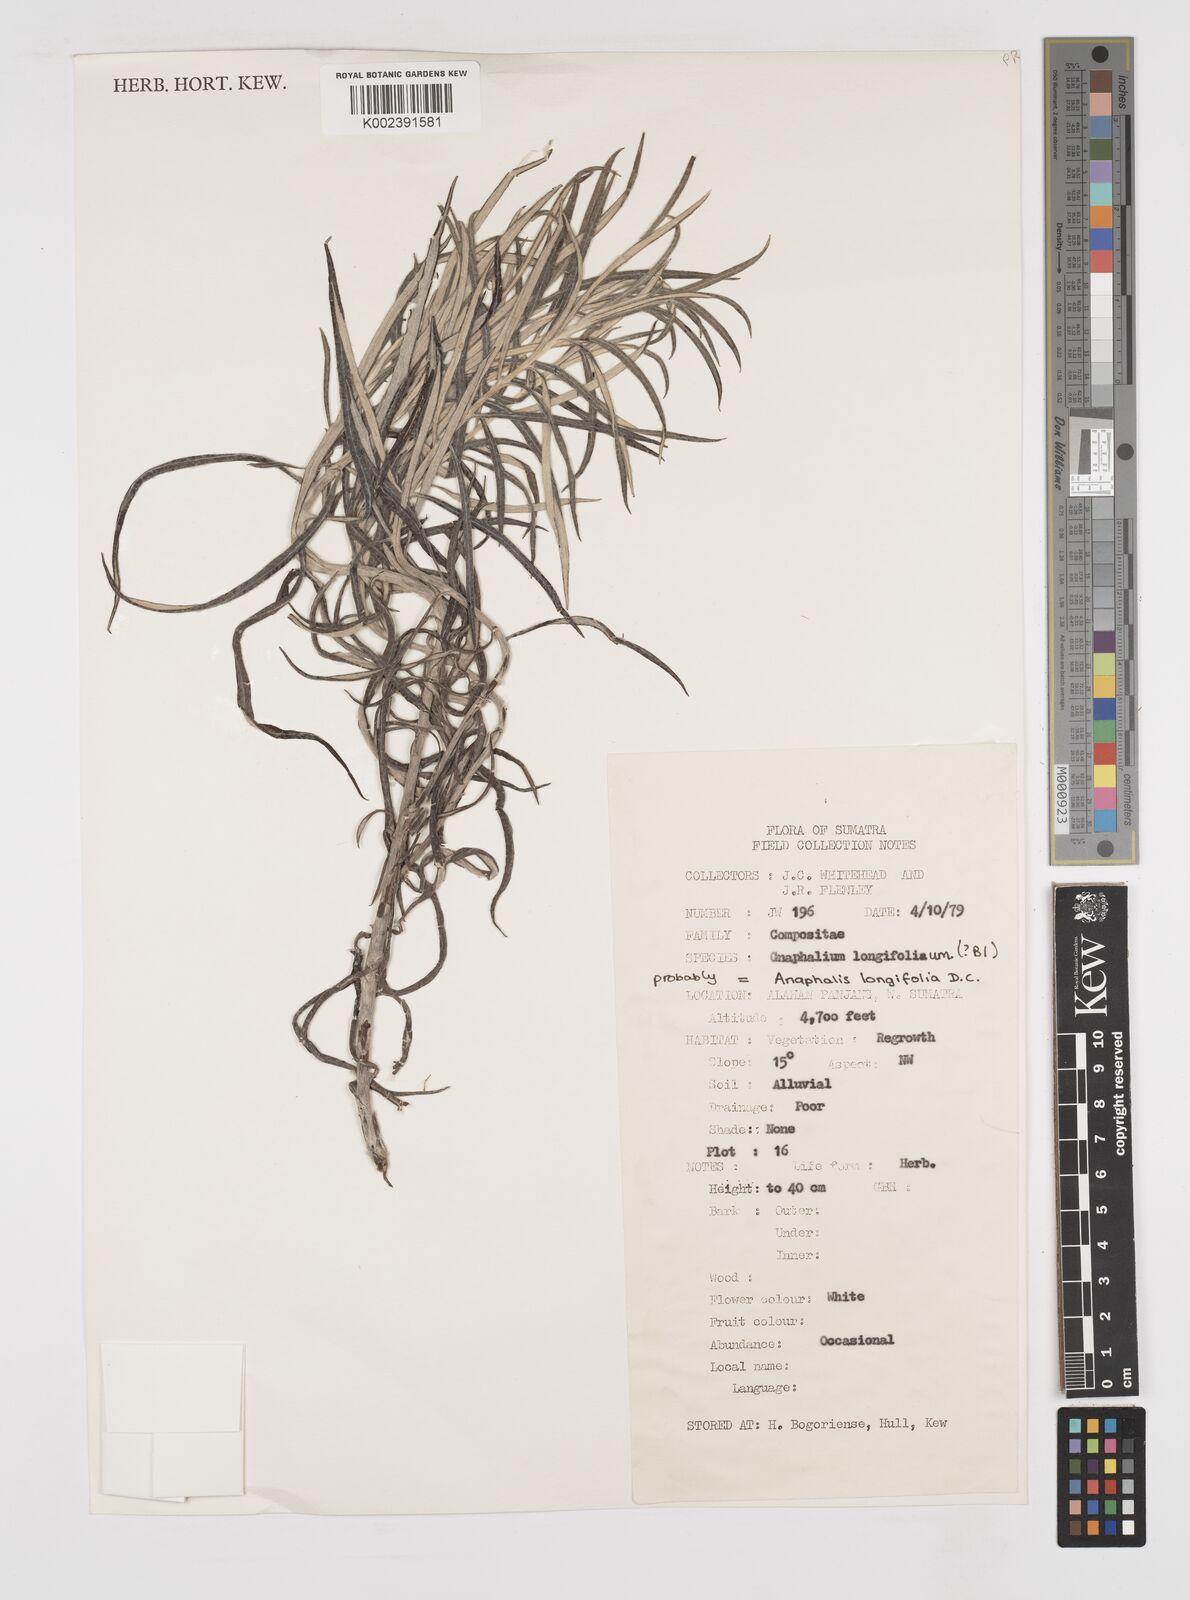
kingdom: Plantae
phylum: Tracheophyta
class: Magnoliopsida
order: Asterales
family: Asteraceae
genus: Anaphalis
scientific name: Anaphalis longifolia
